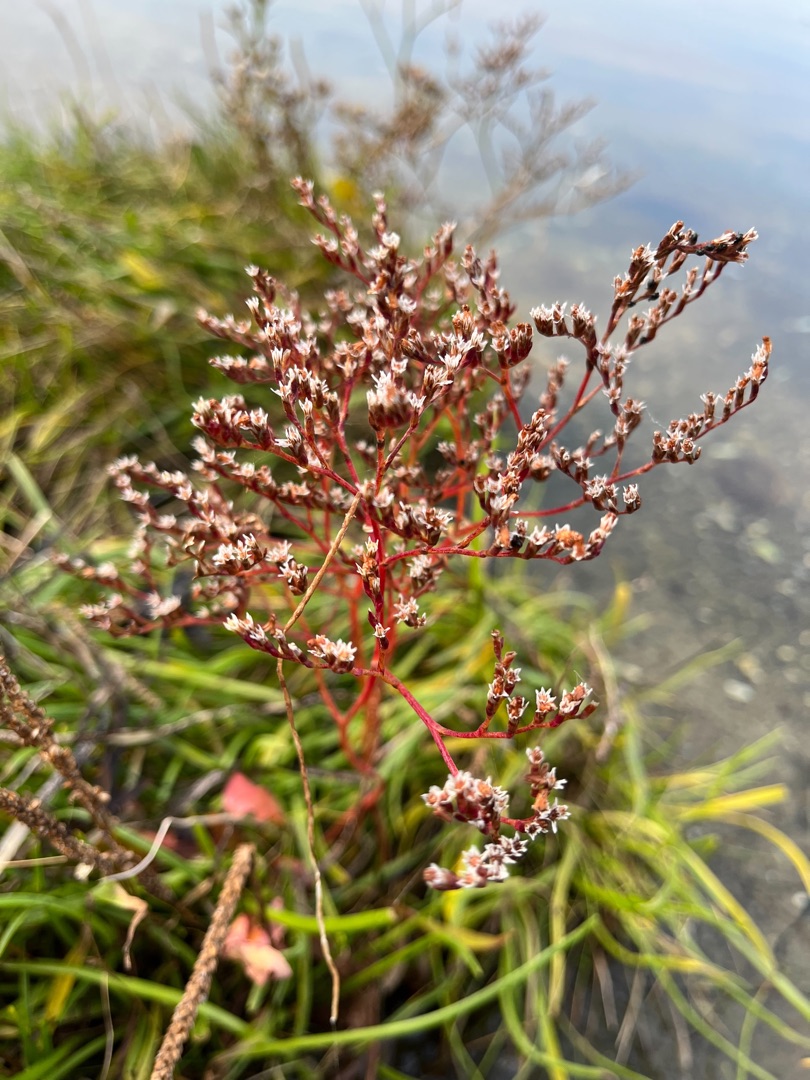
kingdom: Plantae
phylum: Tracheophyta
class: Magnoliopsida
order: Caryophyllales
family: Plumbaginaceae
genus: Limonium
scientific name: Limonium humile
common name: Lav hindebæger
